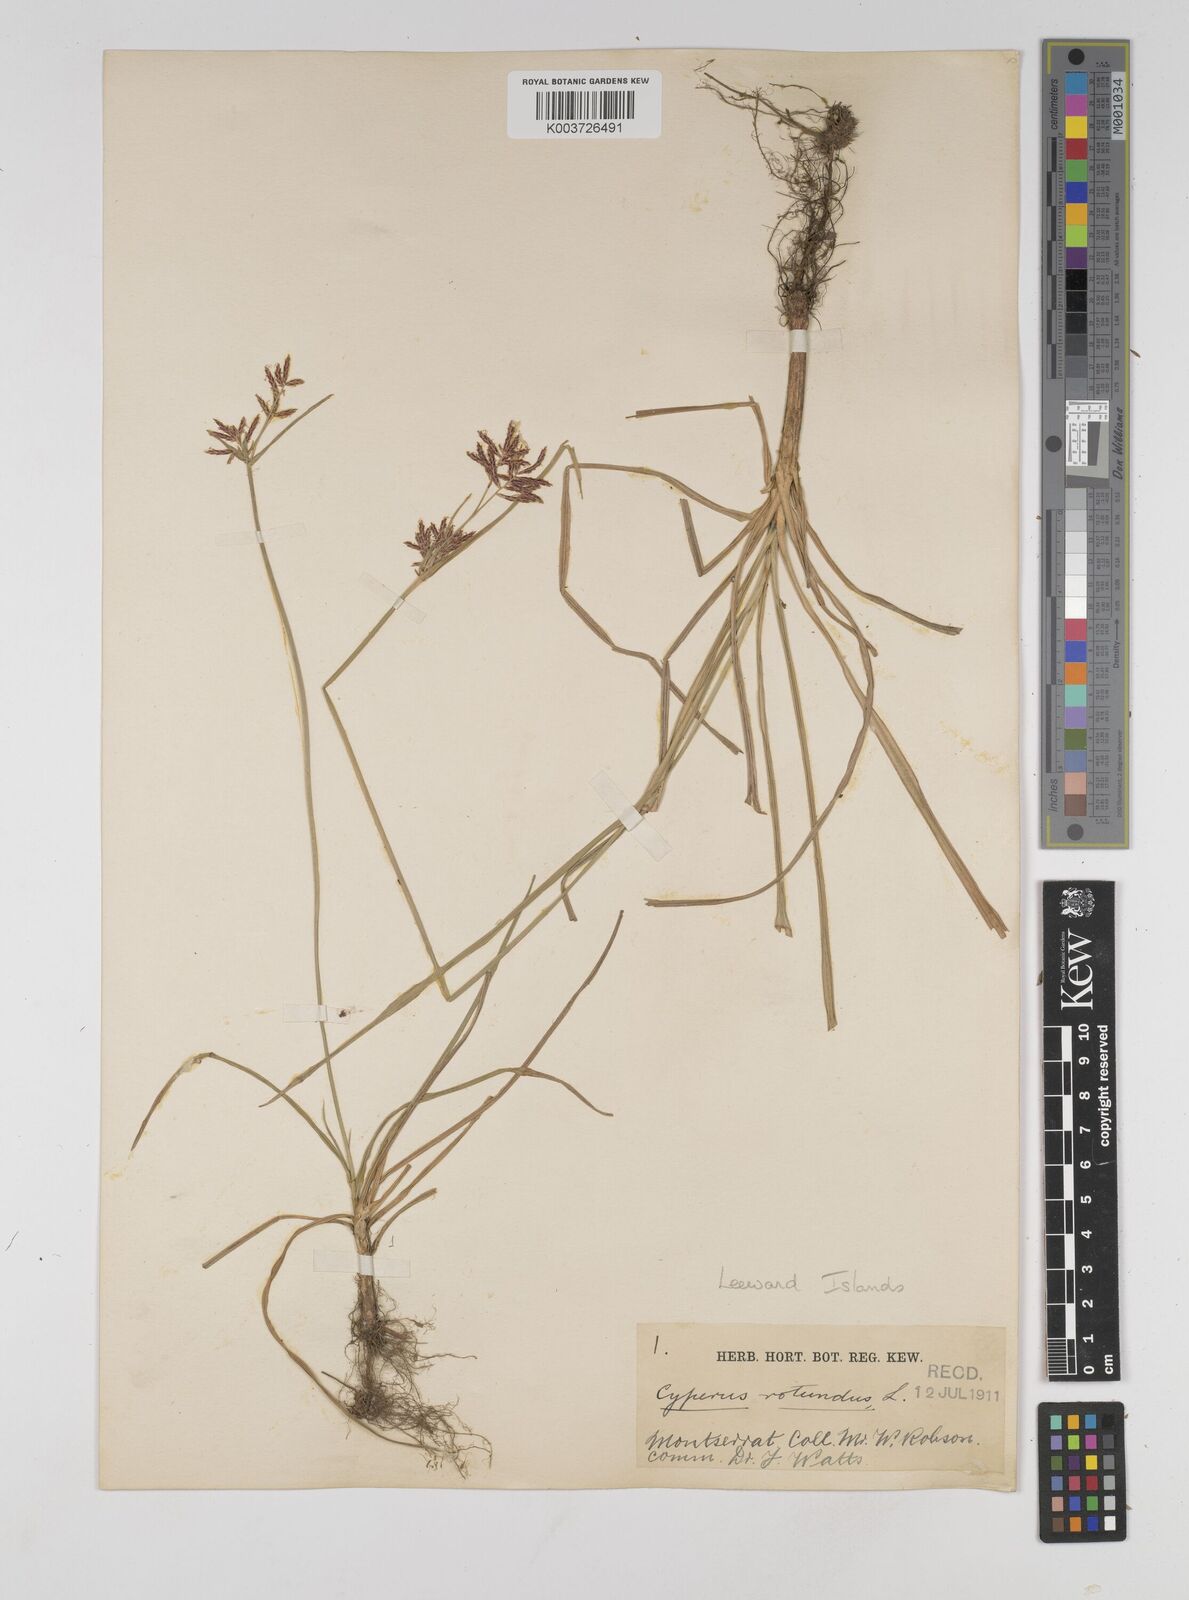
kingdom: Plantae
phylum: Tracheophyta
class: Liliopsida
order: Poales
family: Cyperaceae
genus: Cyperus
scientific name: Cyperus rotundus
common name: Nutgrass
